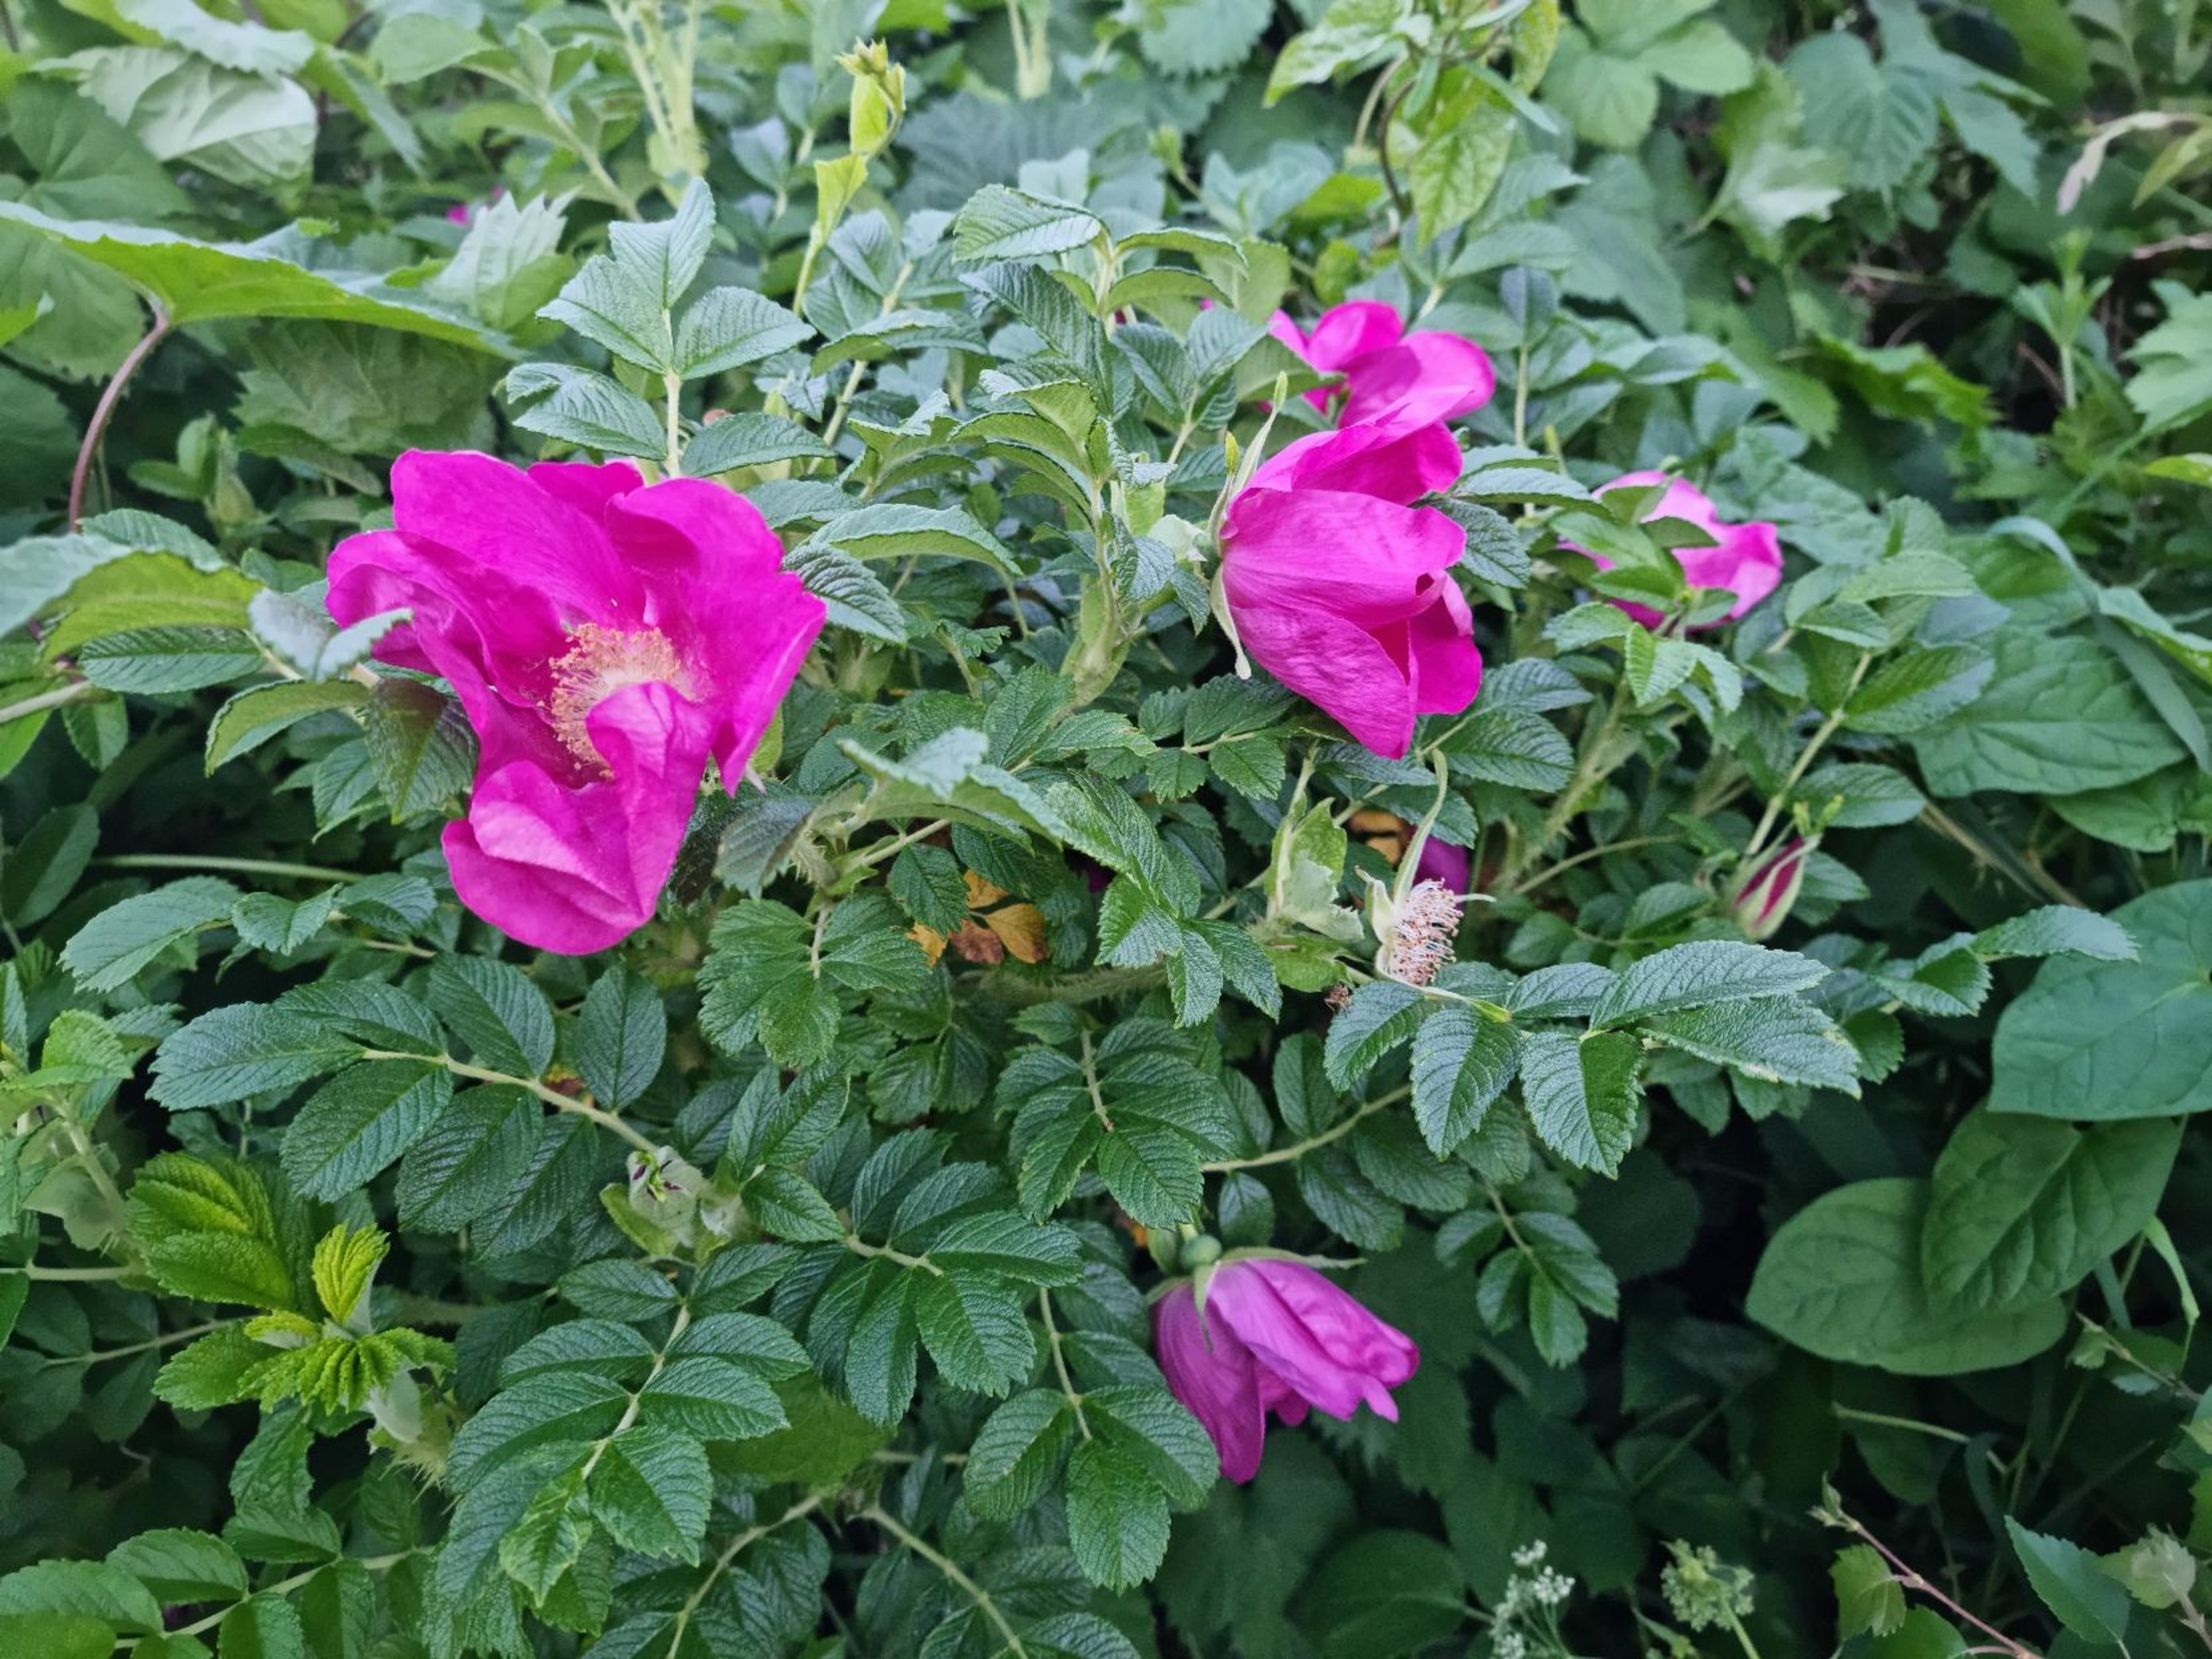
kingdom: Plantae
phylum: Tracheophyta
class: Magnoliopsida
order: Rosales
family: Rosaceae
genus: Rosa
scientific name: Rosa rugosa
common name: Rynket rose
